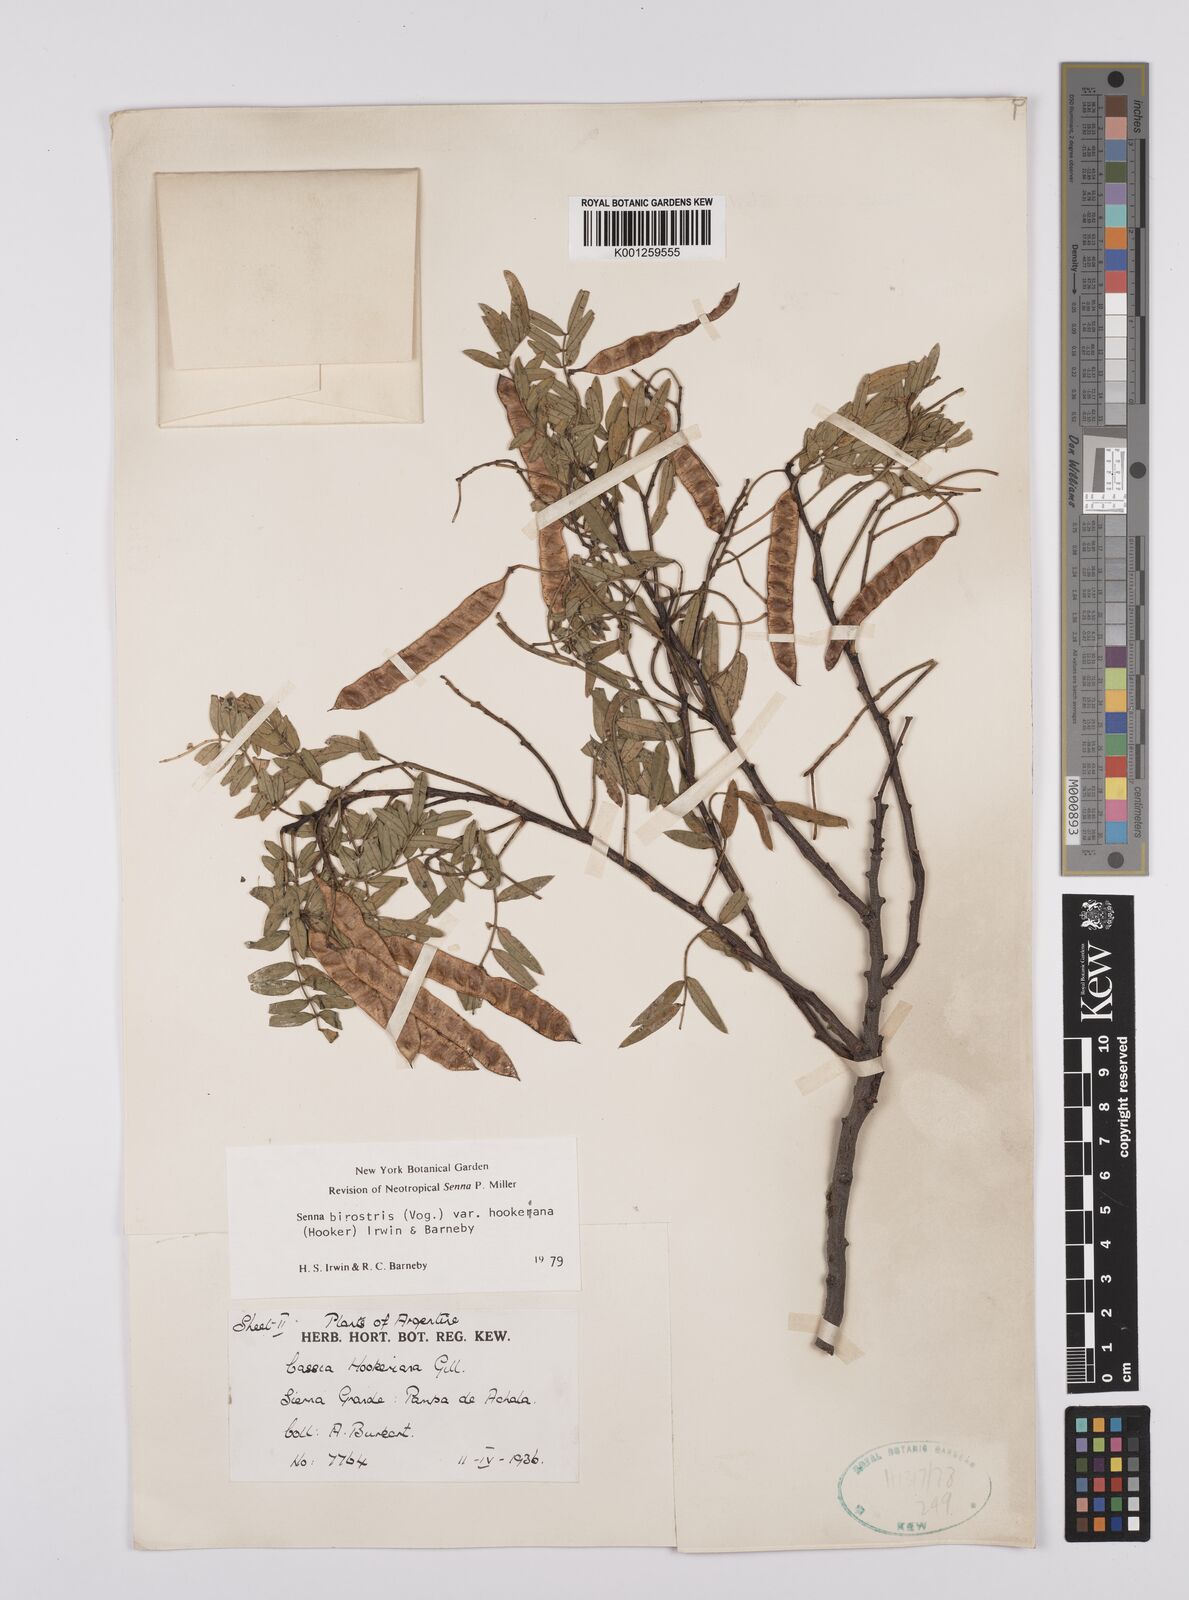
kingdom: Plantae
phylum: Tracheophyta
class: Magnoliopsida
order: Fabales
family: Fabaceae
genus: Senna
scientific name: Senna birostris
